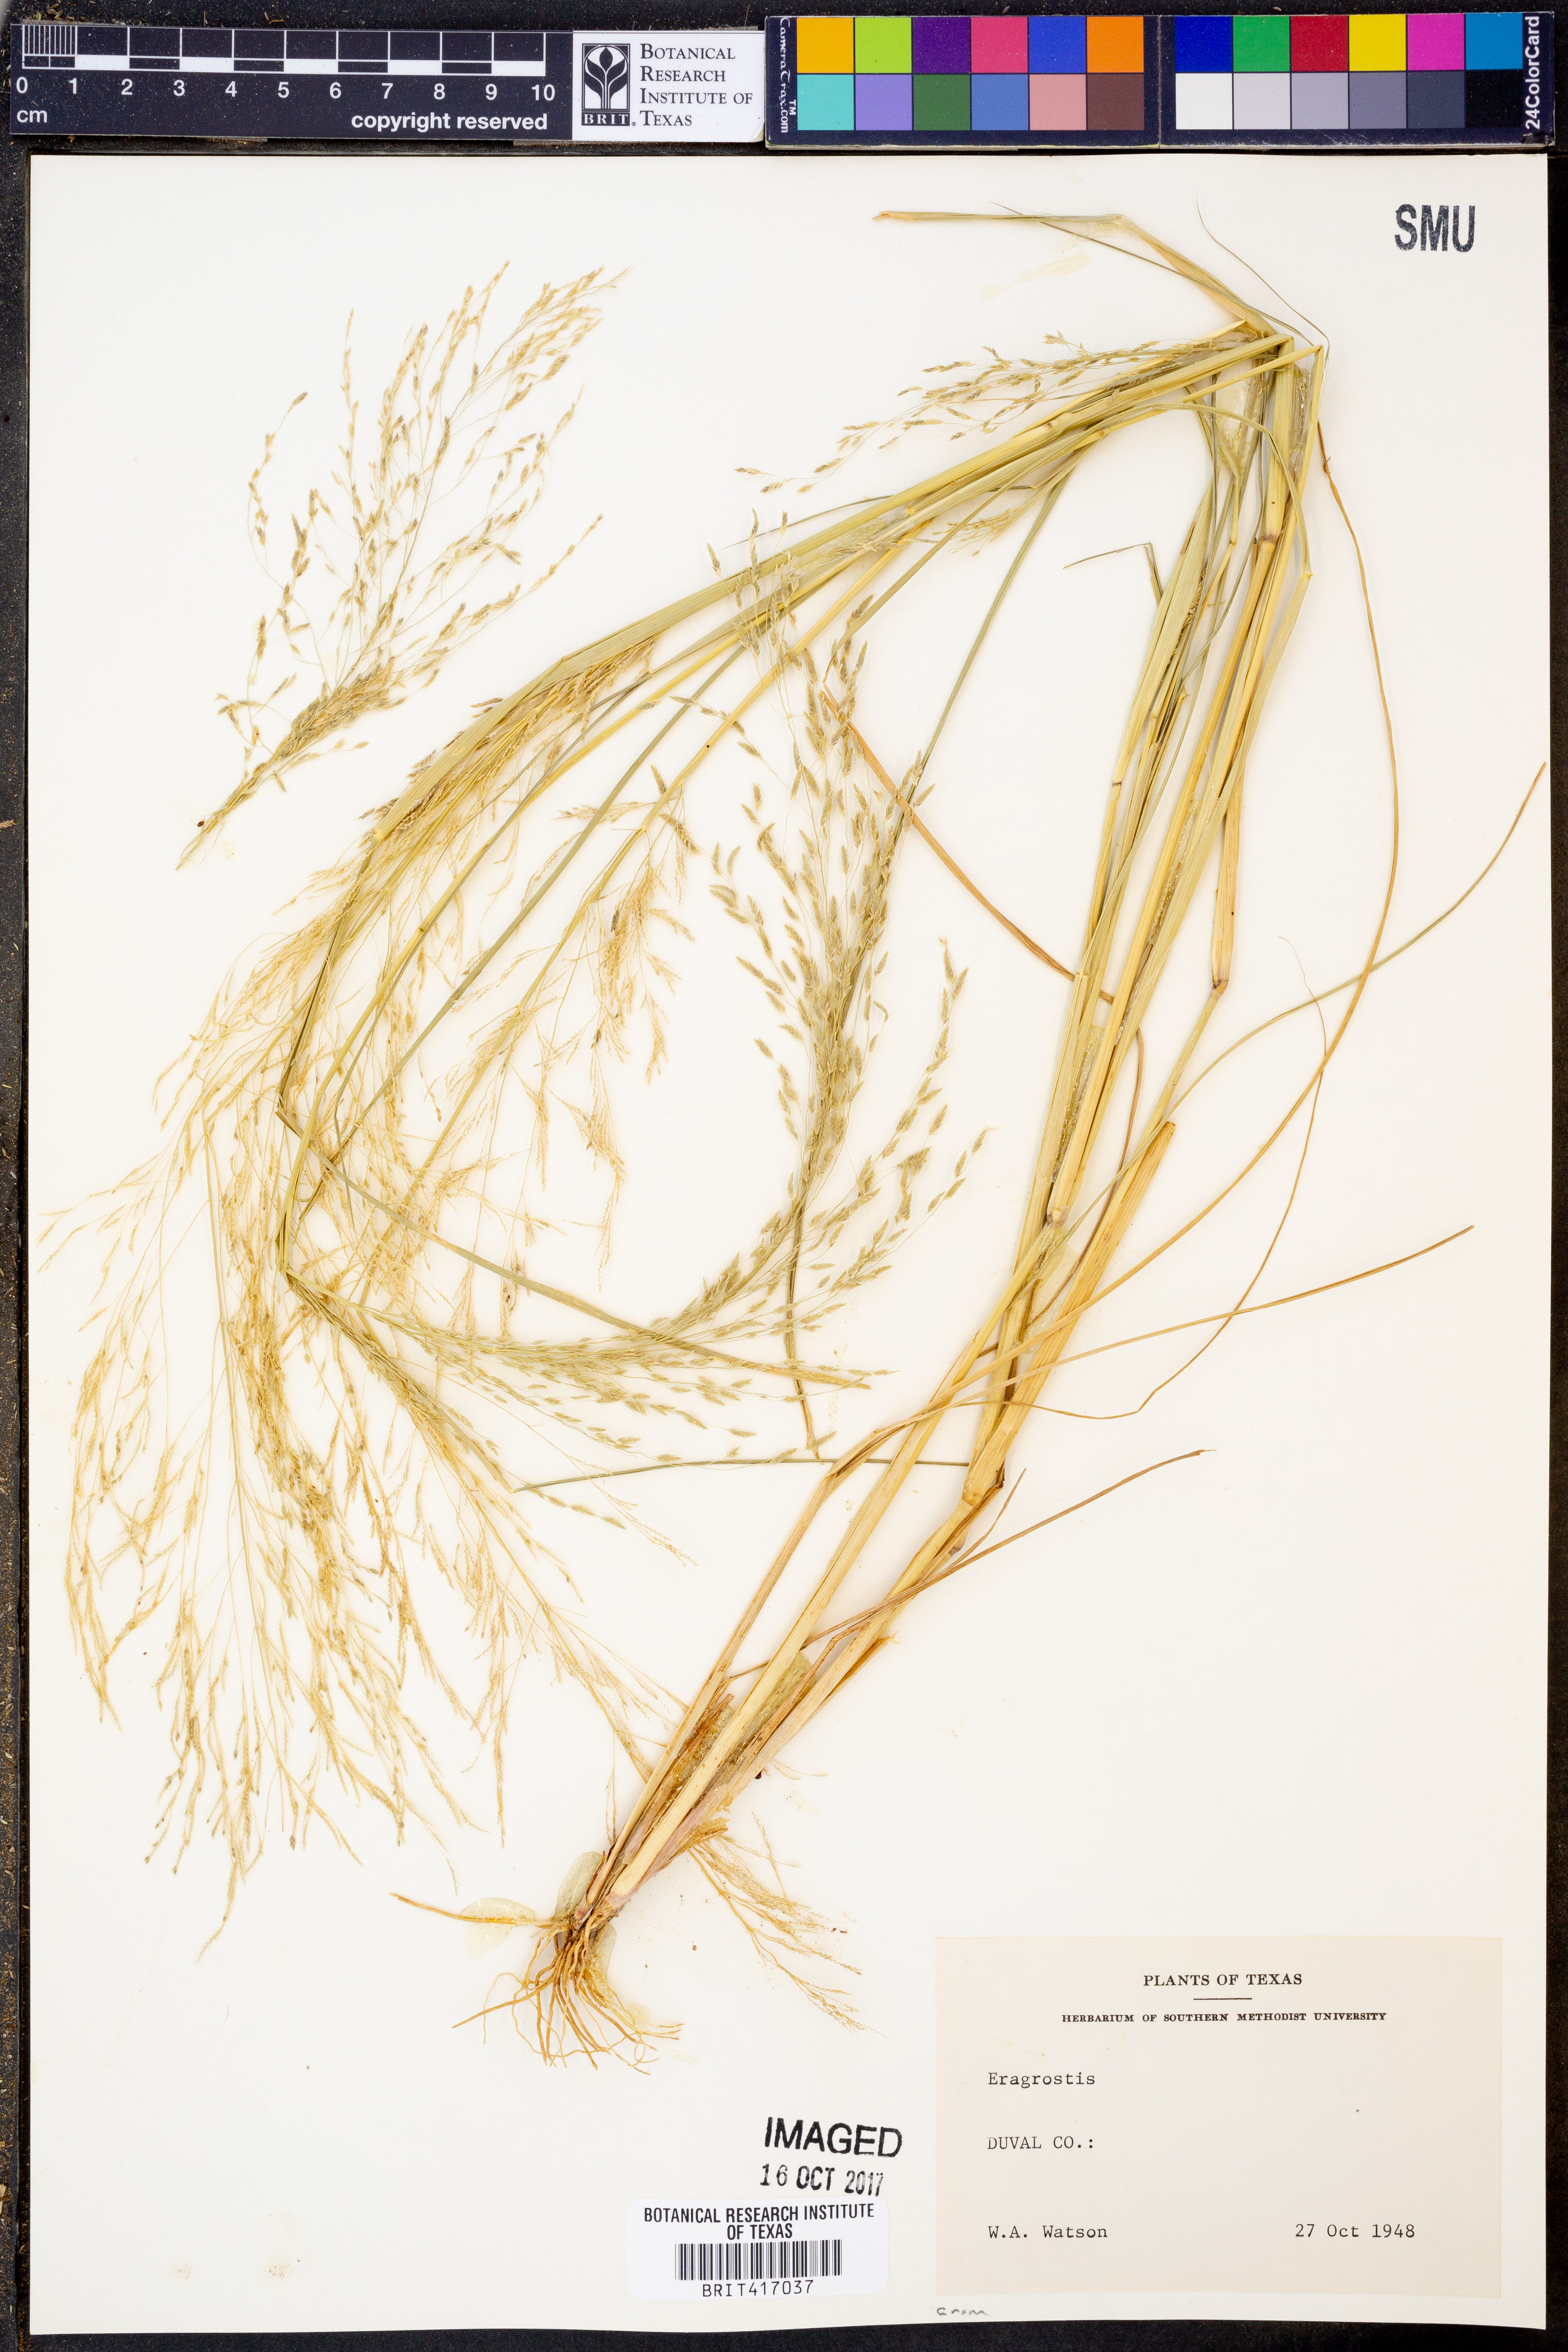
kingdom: Plantae
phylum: Tracheophyta
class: Liliopsida
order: Poales
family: Poaceae
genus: Eragrostis
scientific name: Eragrostis
